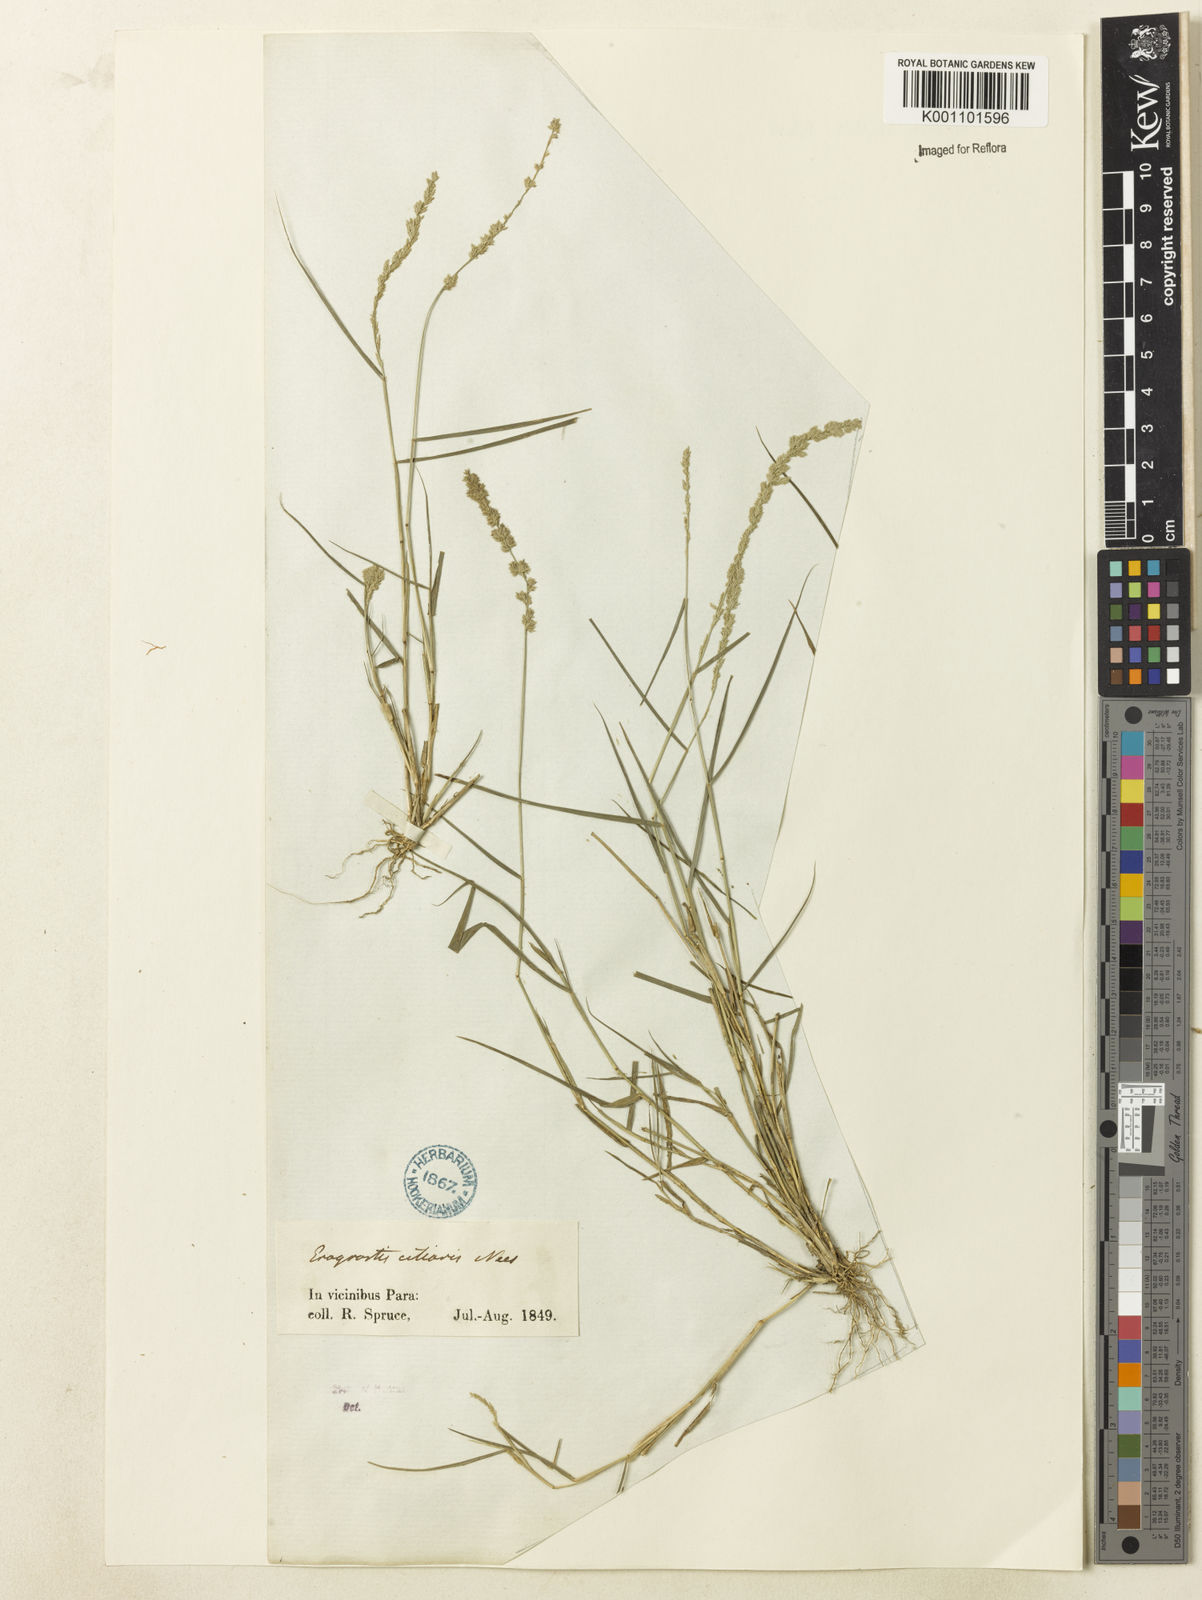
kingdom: Plantae
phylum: Tracheophyta
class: Liliopsida
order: Poales
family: Poaceae
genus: Eragrostis
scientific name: Eragrostis ciliaris
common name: Gophertail lovegrass
